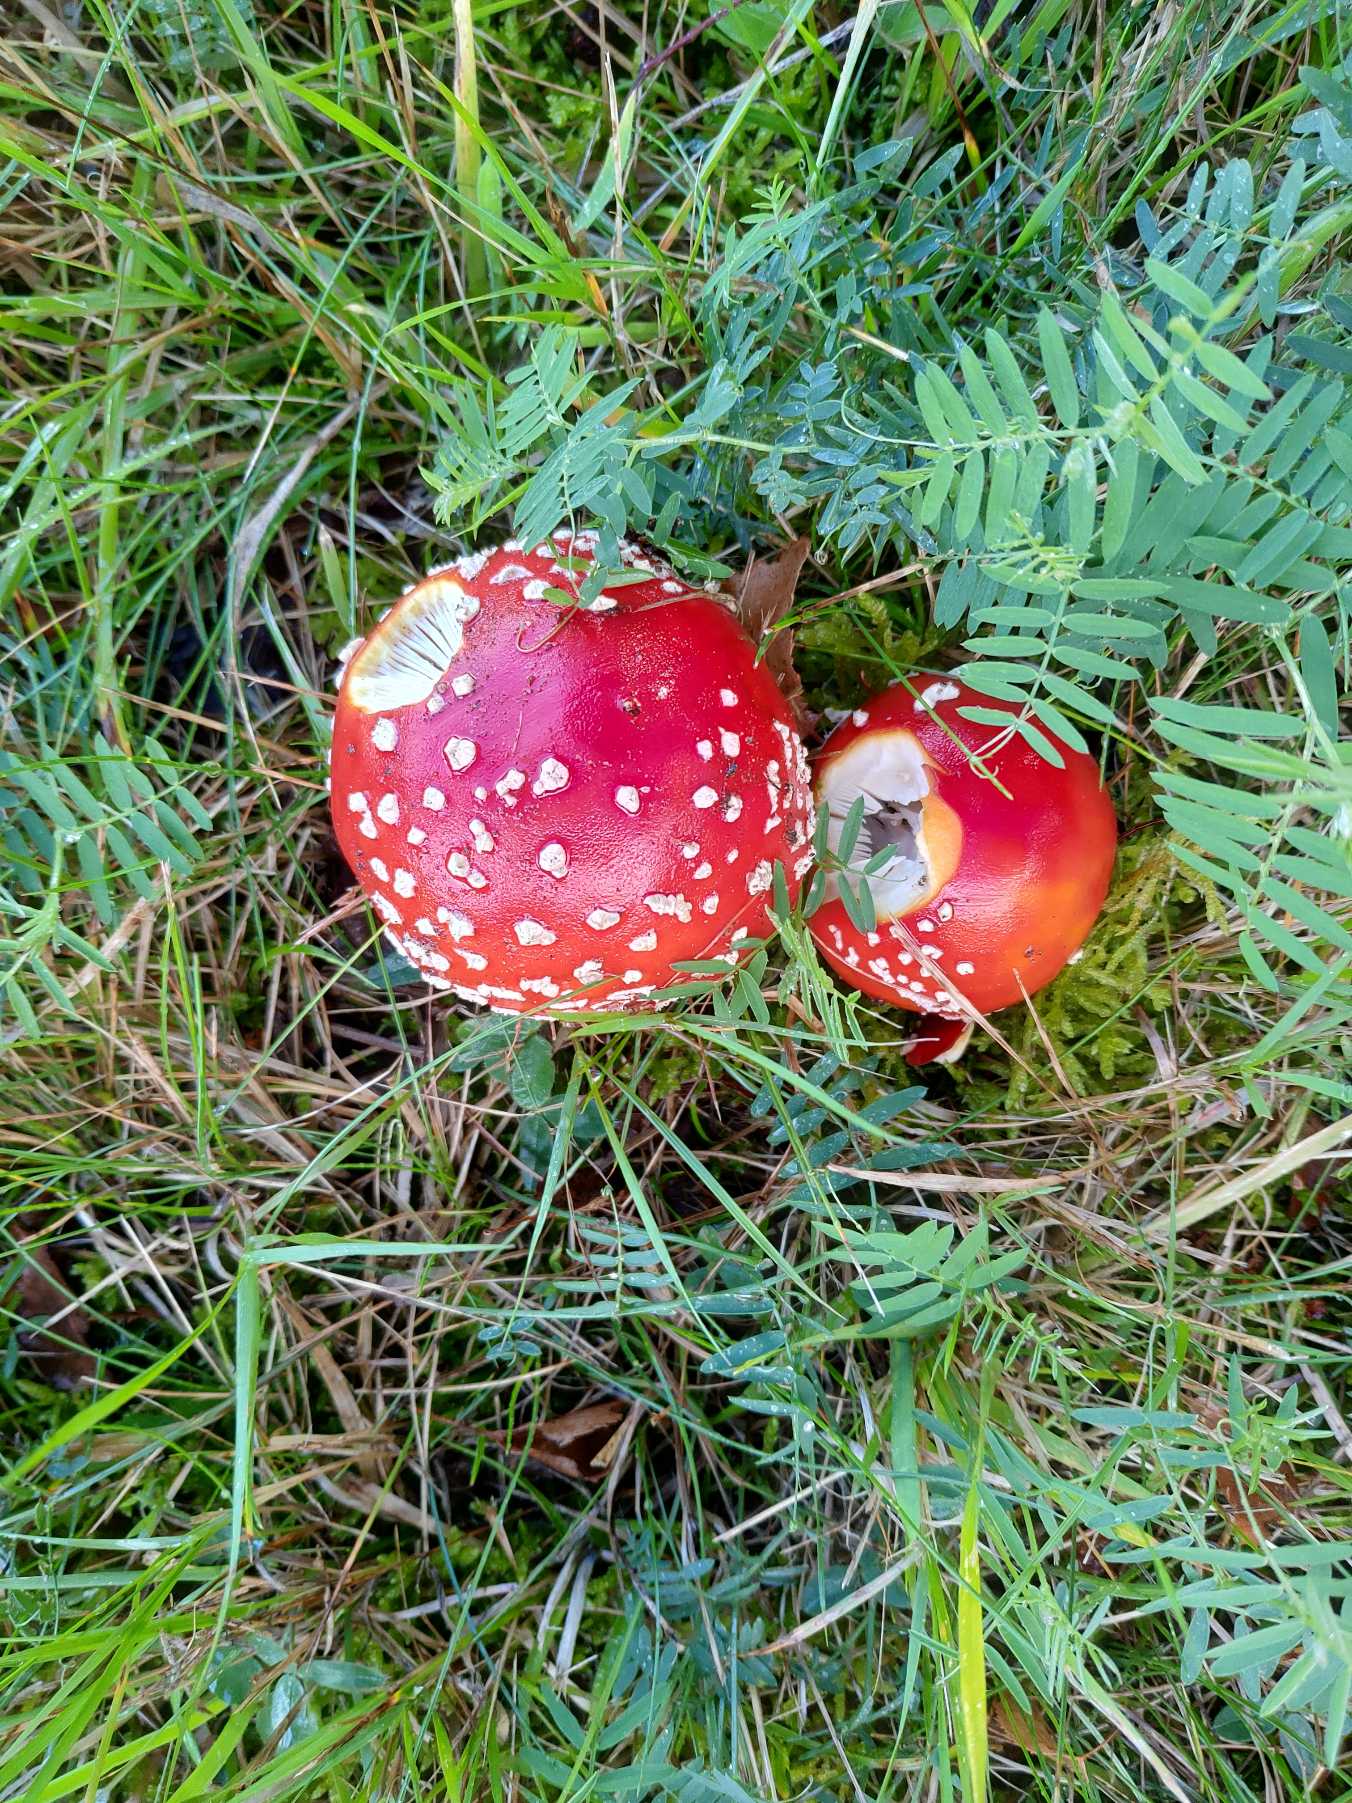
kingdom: Fungi
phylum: Basidiomycota
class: Agaricomycetes
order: Agaricales
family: Amanitaceae
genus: Amanita
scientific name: Amanita muscaria
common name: Rød fluesvamp
